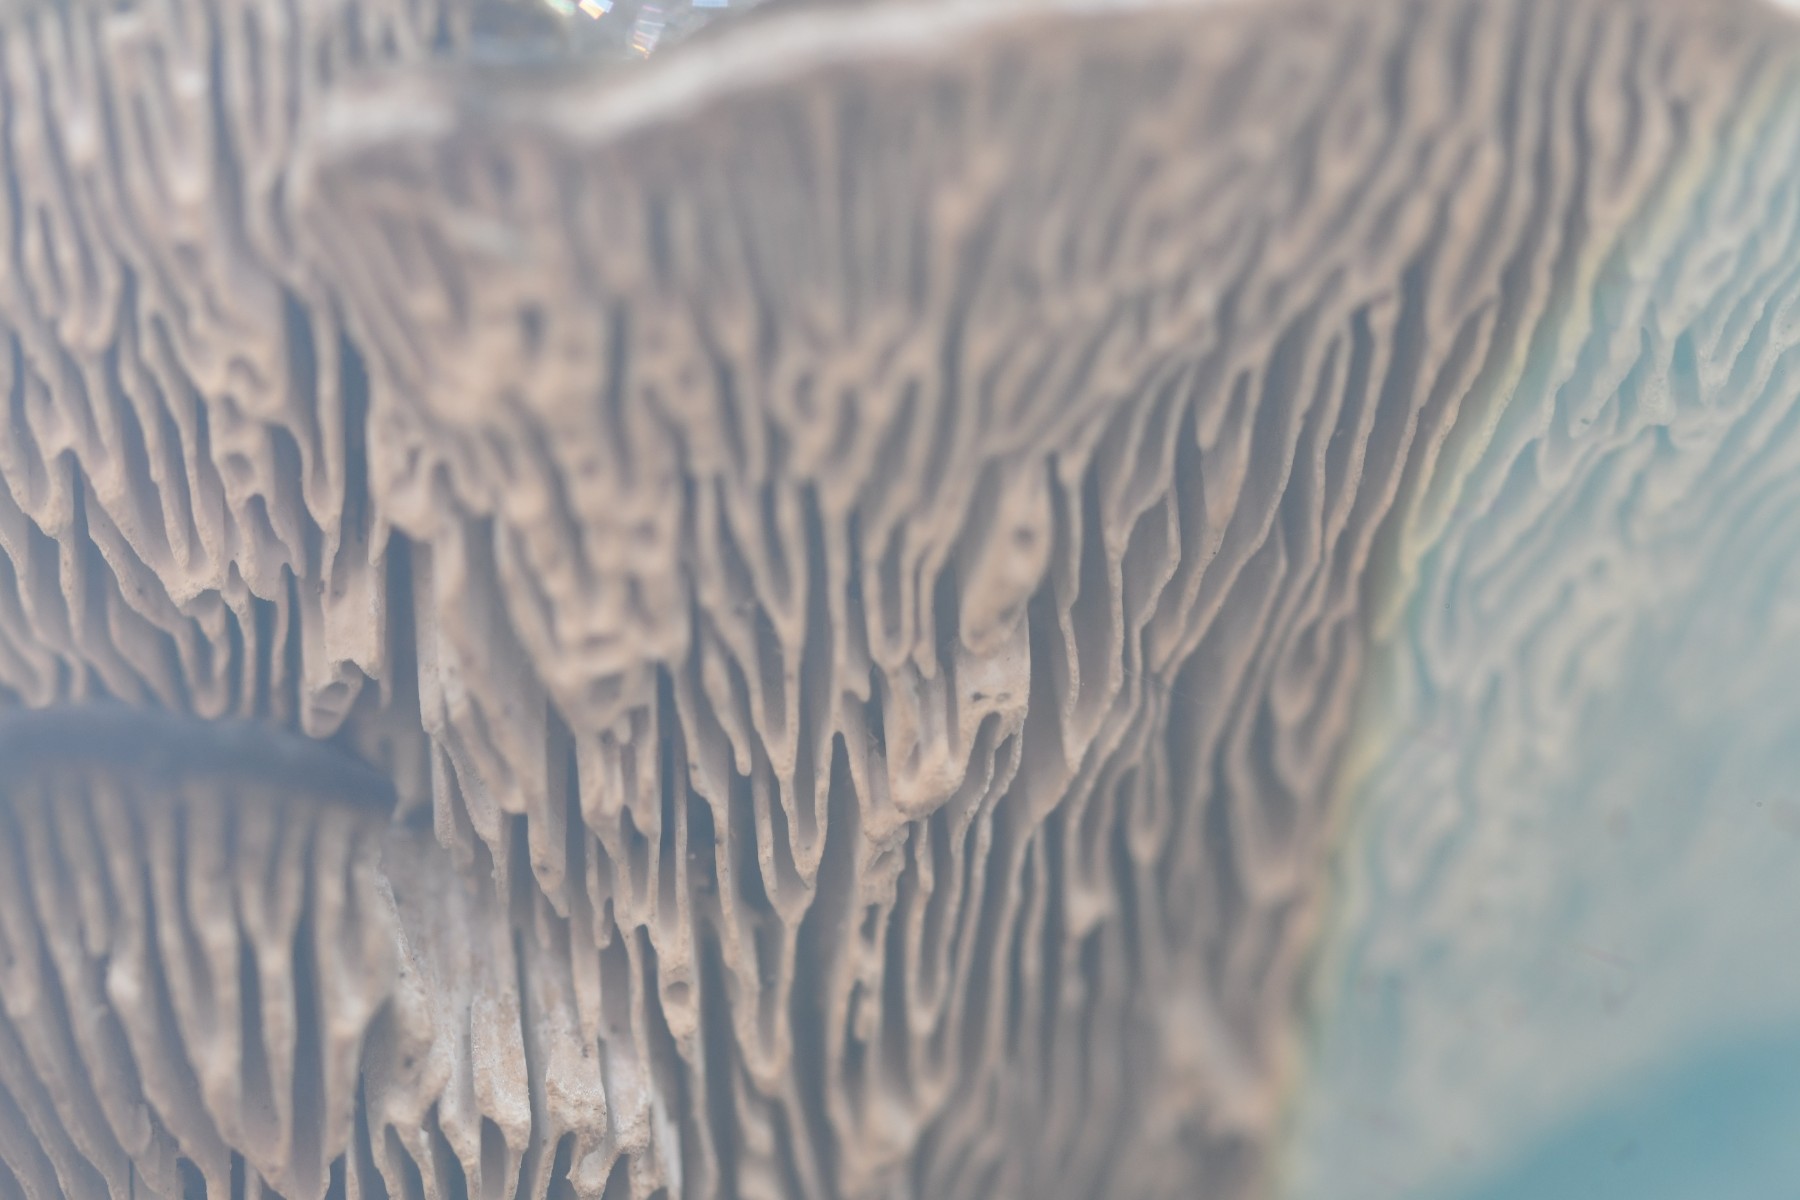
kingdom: Fungi
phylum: Basidiomycota
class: Agaricomycetes
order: Polyporales
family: Fomitopsidaceae
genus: Daedalea
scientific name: Daedalea quercina
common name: ege-labyrintsvamp
